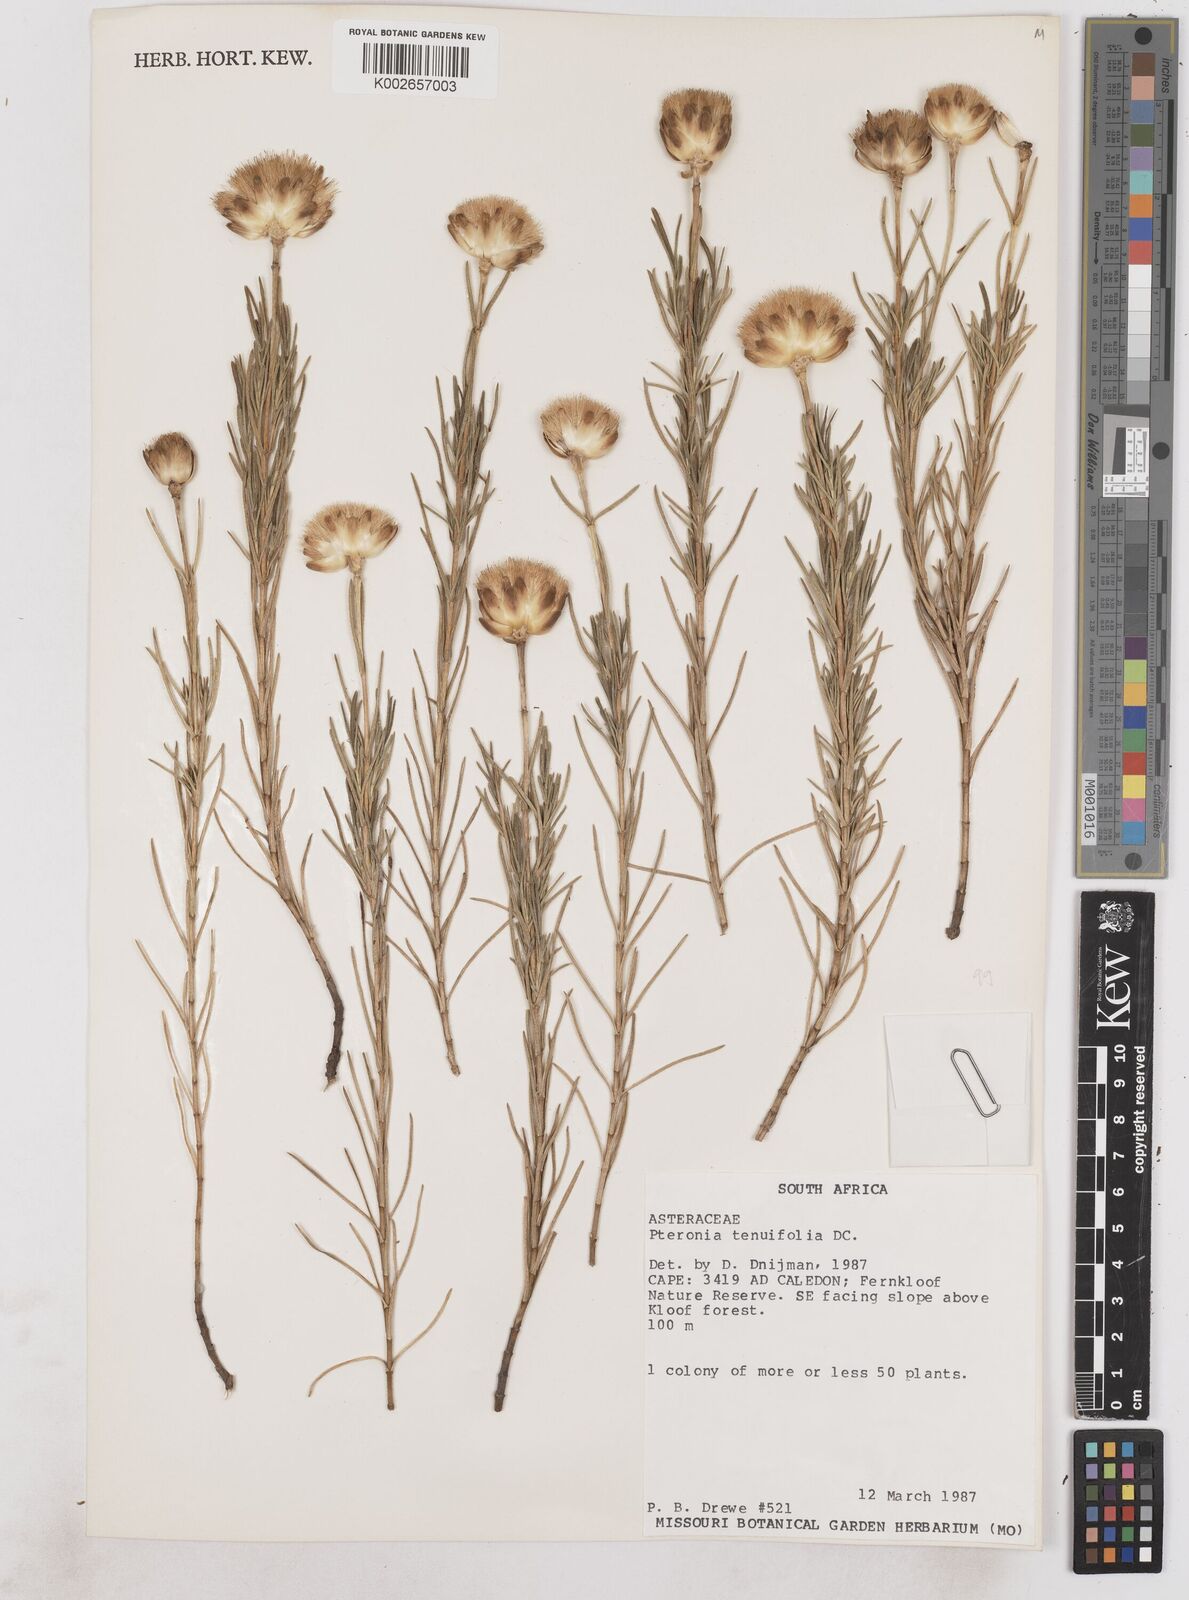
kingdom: Plantae
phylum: Tracheophyta
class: Magnoliopsida
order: Asterales
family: Asteraceae
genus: Pteronia
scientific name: Pteronia tenuifolia
